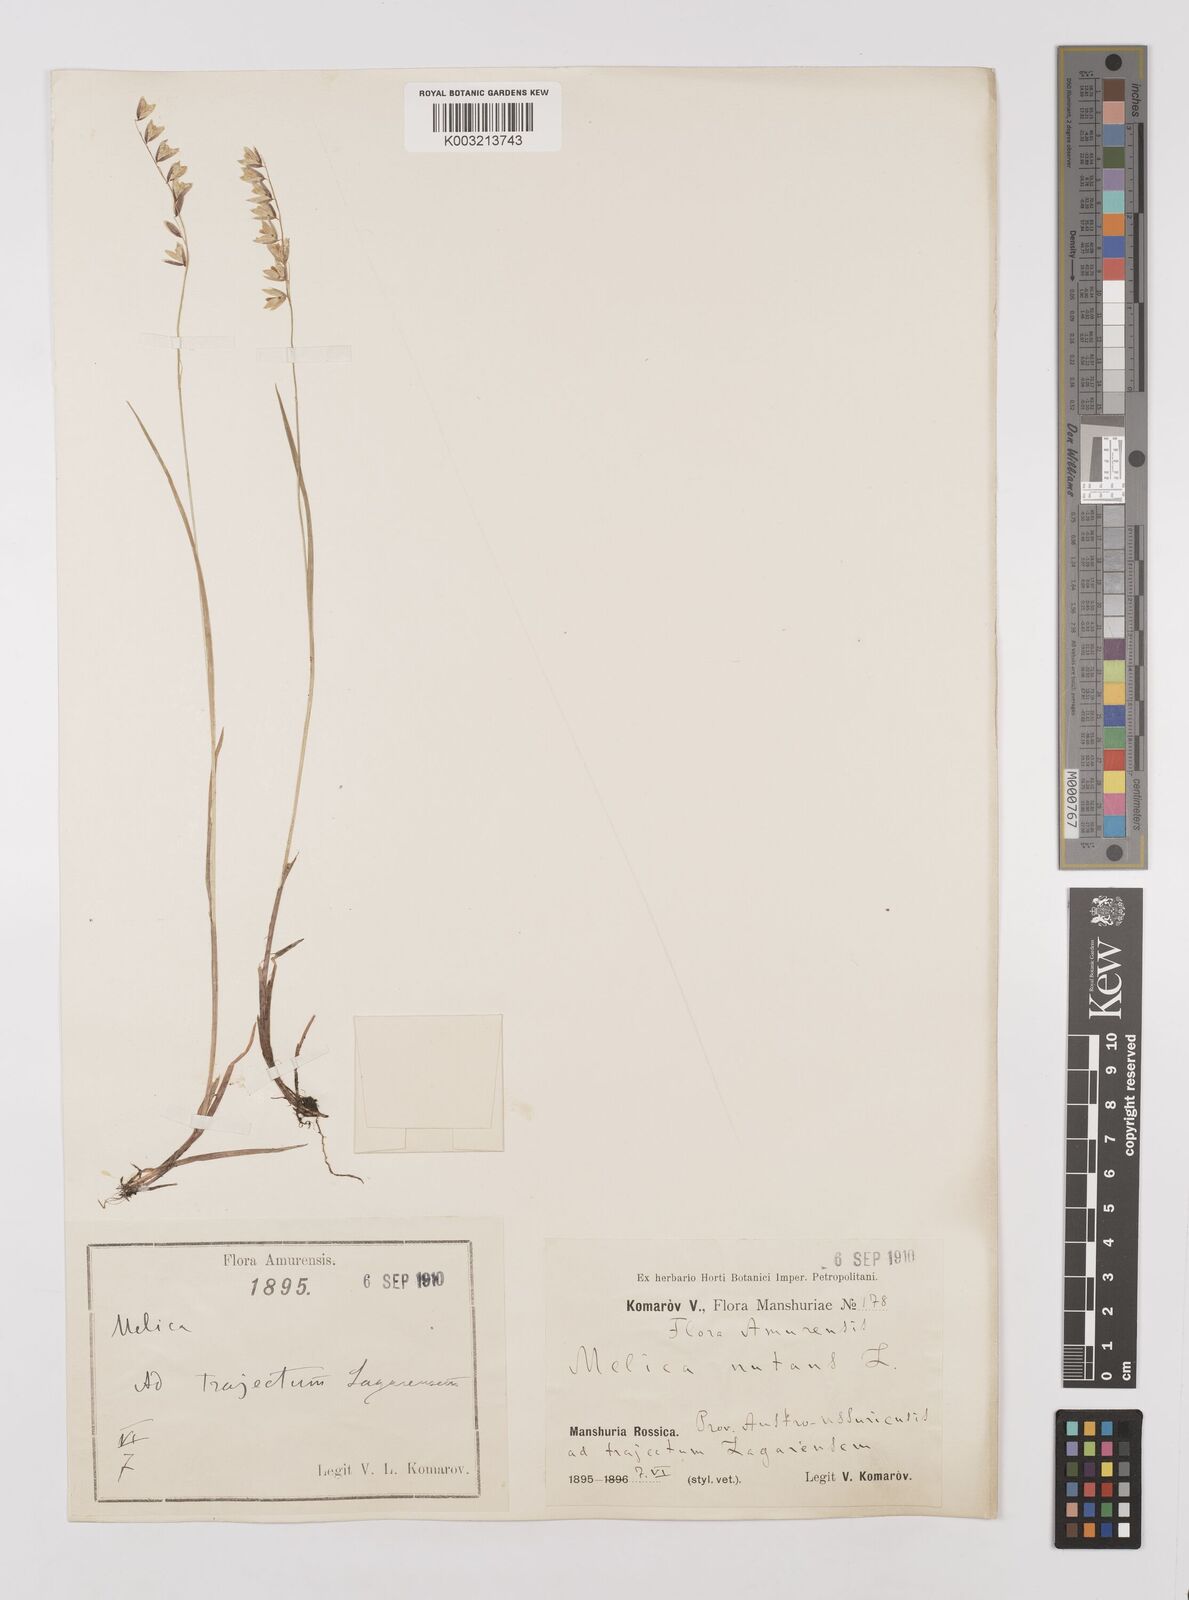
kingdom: Plantae
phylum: Tracheophyta
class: Liliopsida
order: Poales
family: Poaceae
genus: Melica
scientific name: Melica
